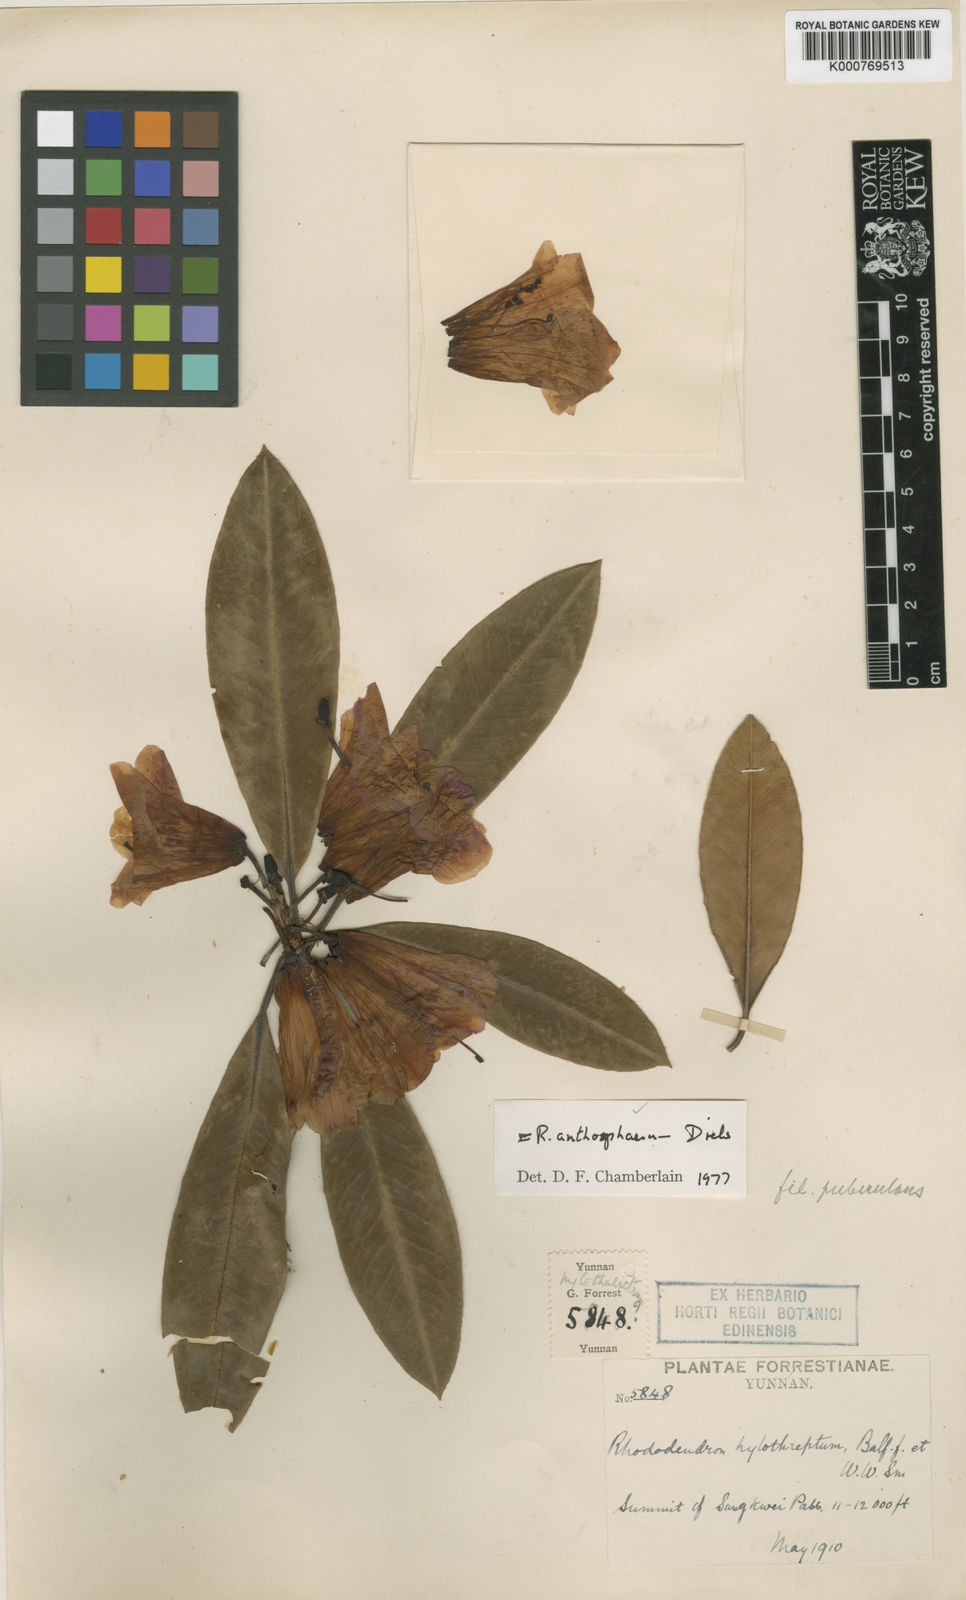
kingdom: Plantae
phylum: Tracheophyta
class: Magnoliopsida
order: Ericales
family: Ericaceae
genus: Rhododendron
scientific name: Rhododendron anthosphaerum
